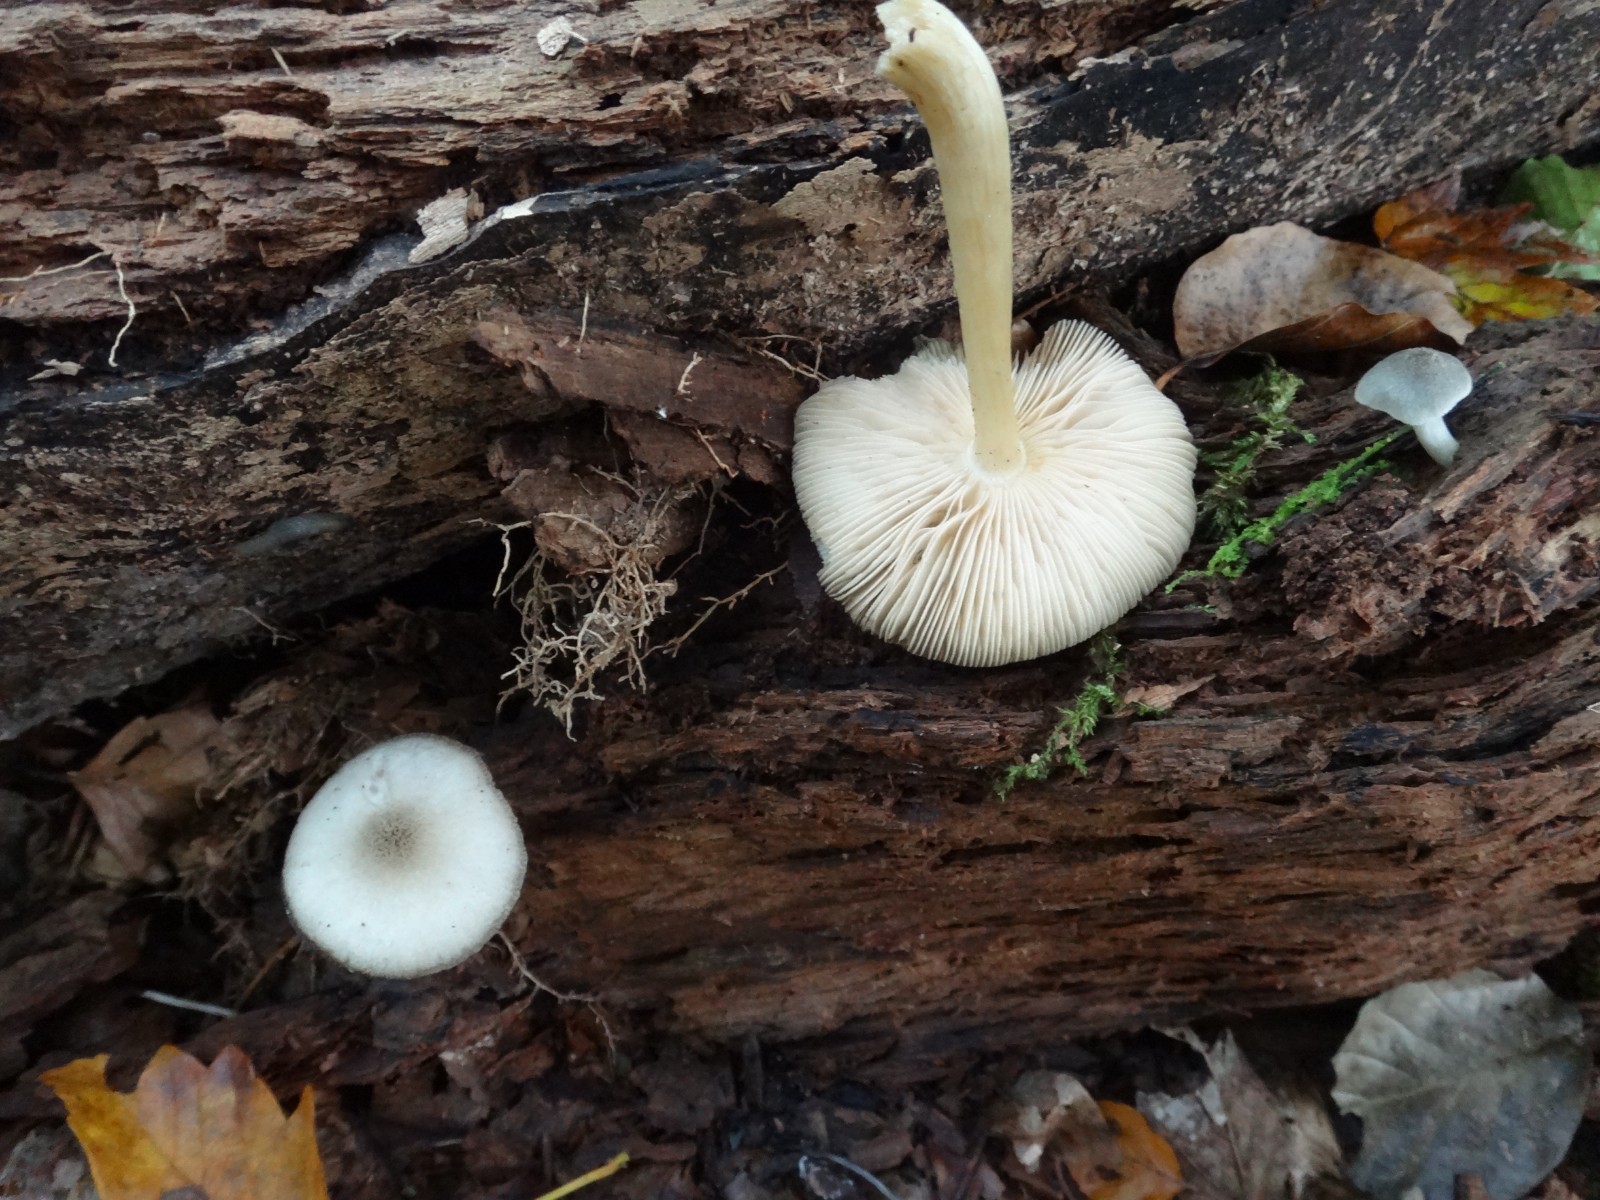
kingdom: Fungi
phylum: Basidiomycota
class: Agaricomycetes
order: Agaricales
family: Pluteaceae
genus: Pluteus
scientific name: Pluteus salicinus
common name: stiv skærmhat
